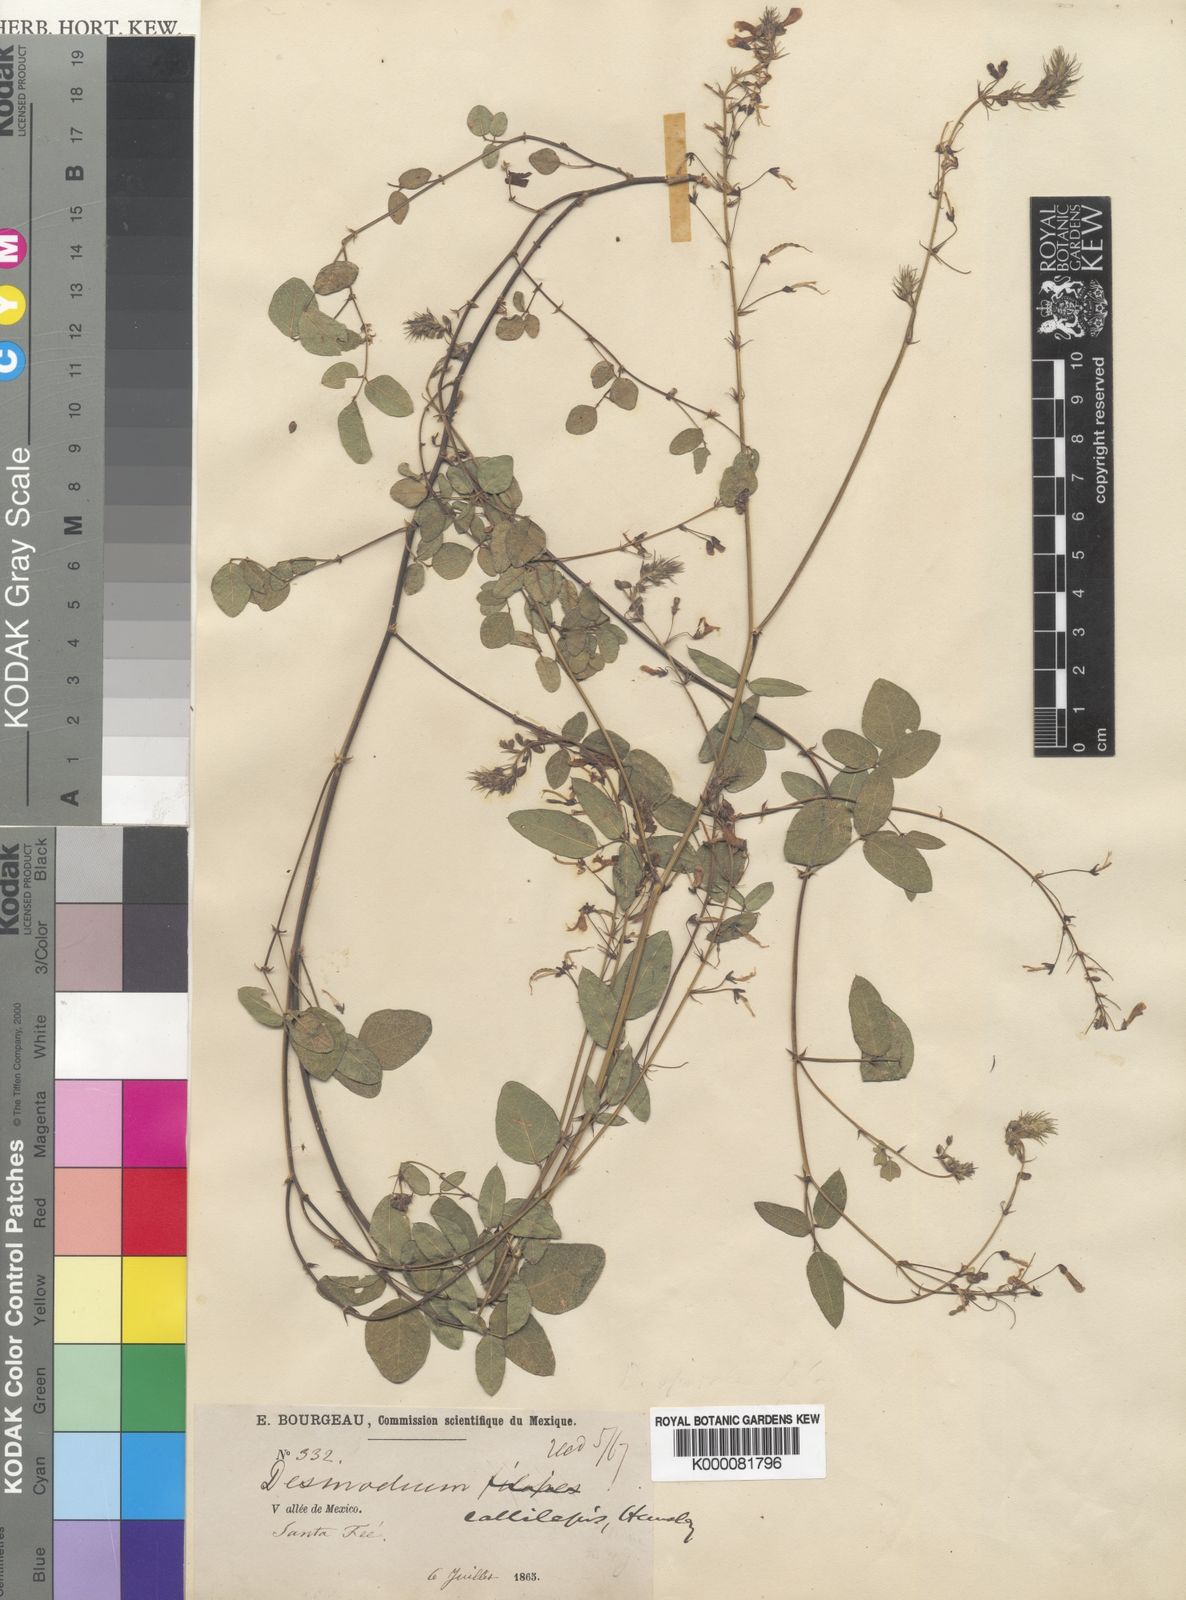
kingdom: Plantae
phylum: Tracheophyta
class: Magnoliopsida
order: Fabales
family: Fabaceae
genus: Desmodium
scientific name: Desmodium callilepis
